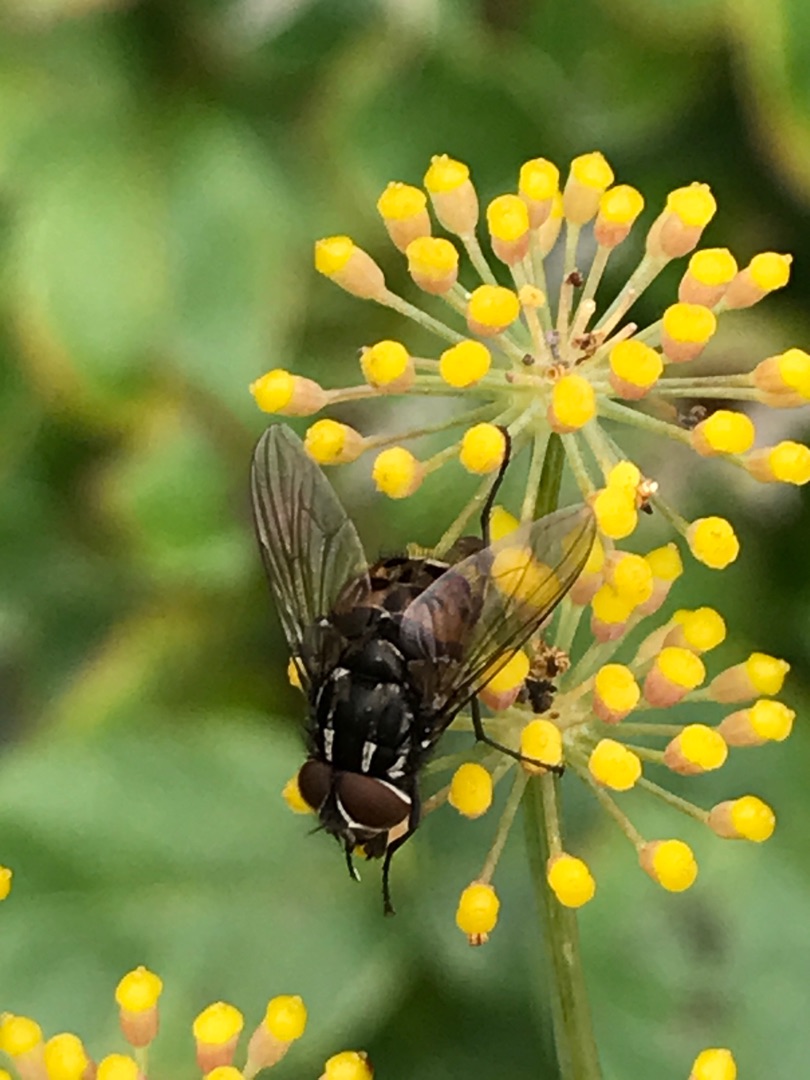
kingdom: Animalia
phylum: Arthropoda
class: Insecta
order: Diptera
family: Muscidae
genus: Graphomya
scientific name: Graphomya maculata
